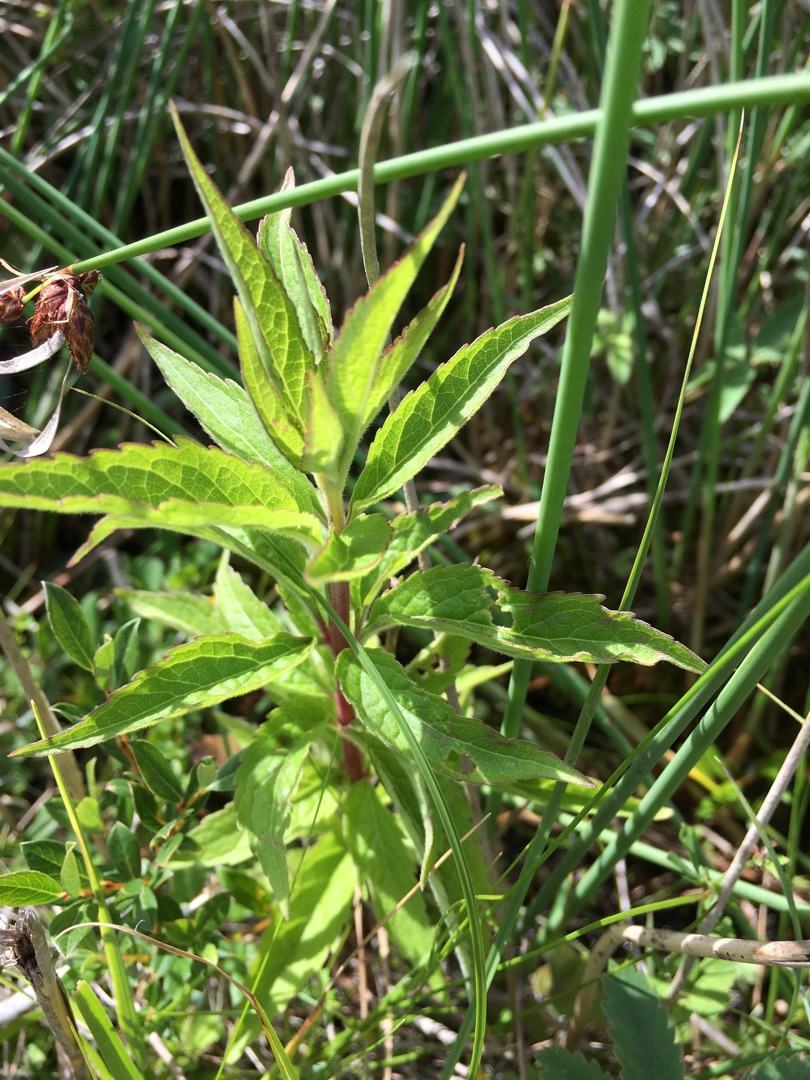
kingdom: Plantae
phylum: Tracheophyta
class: Magnoliopsida
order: Asterales
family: Asteraceae
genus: Eupatorium
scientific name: Eupatorium cannabinum
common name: Hjortetrøst
